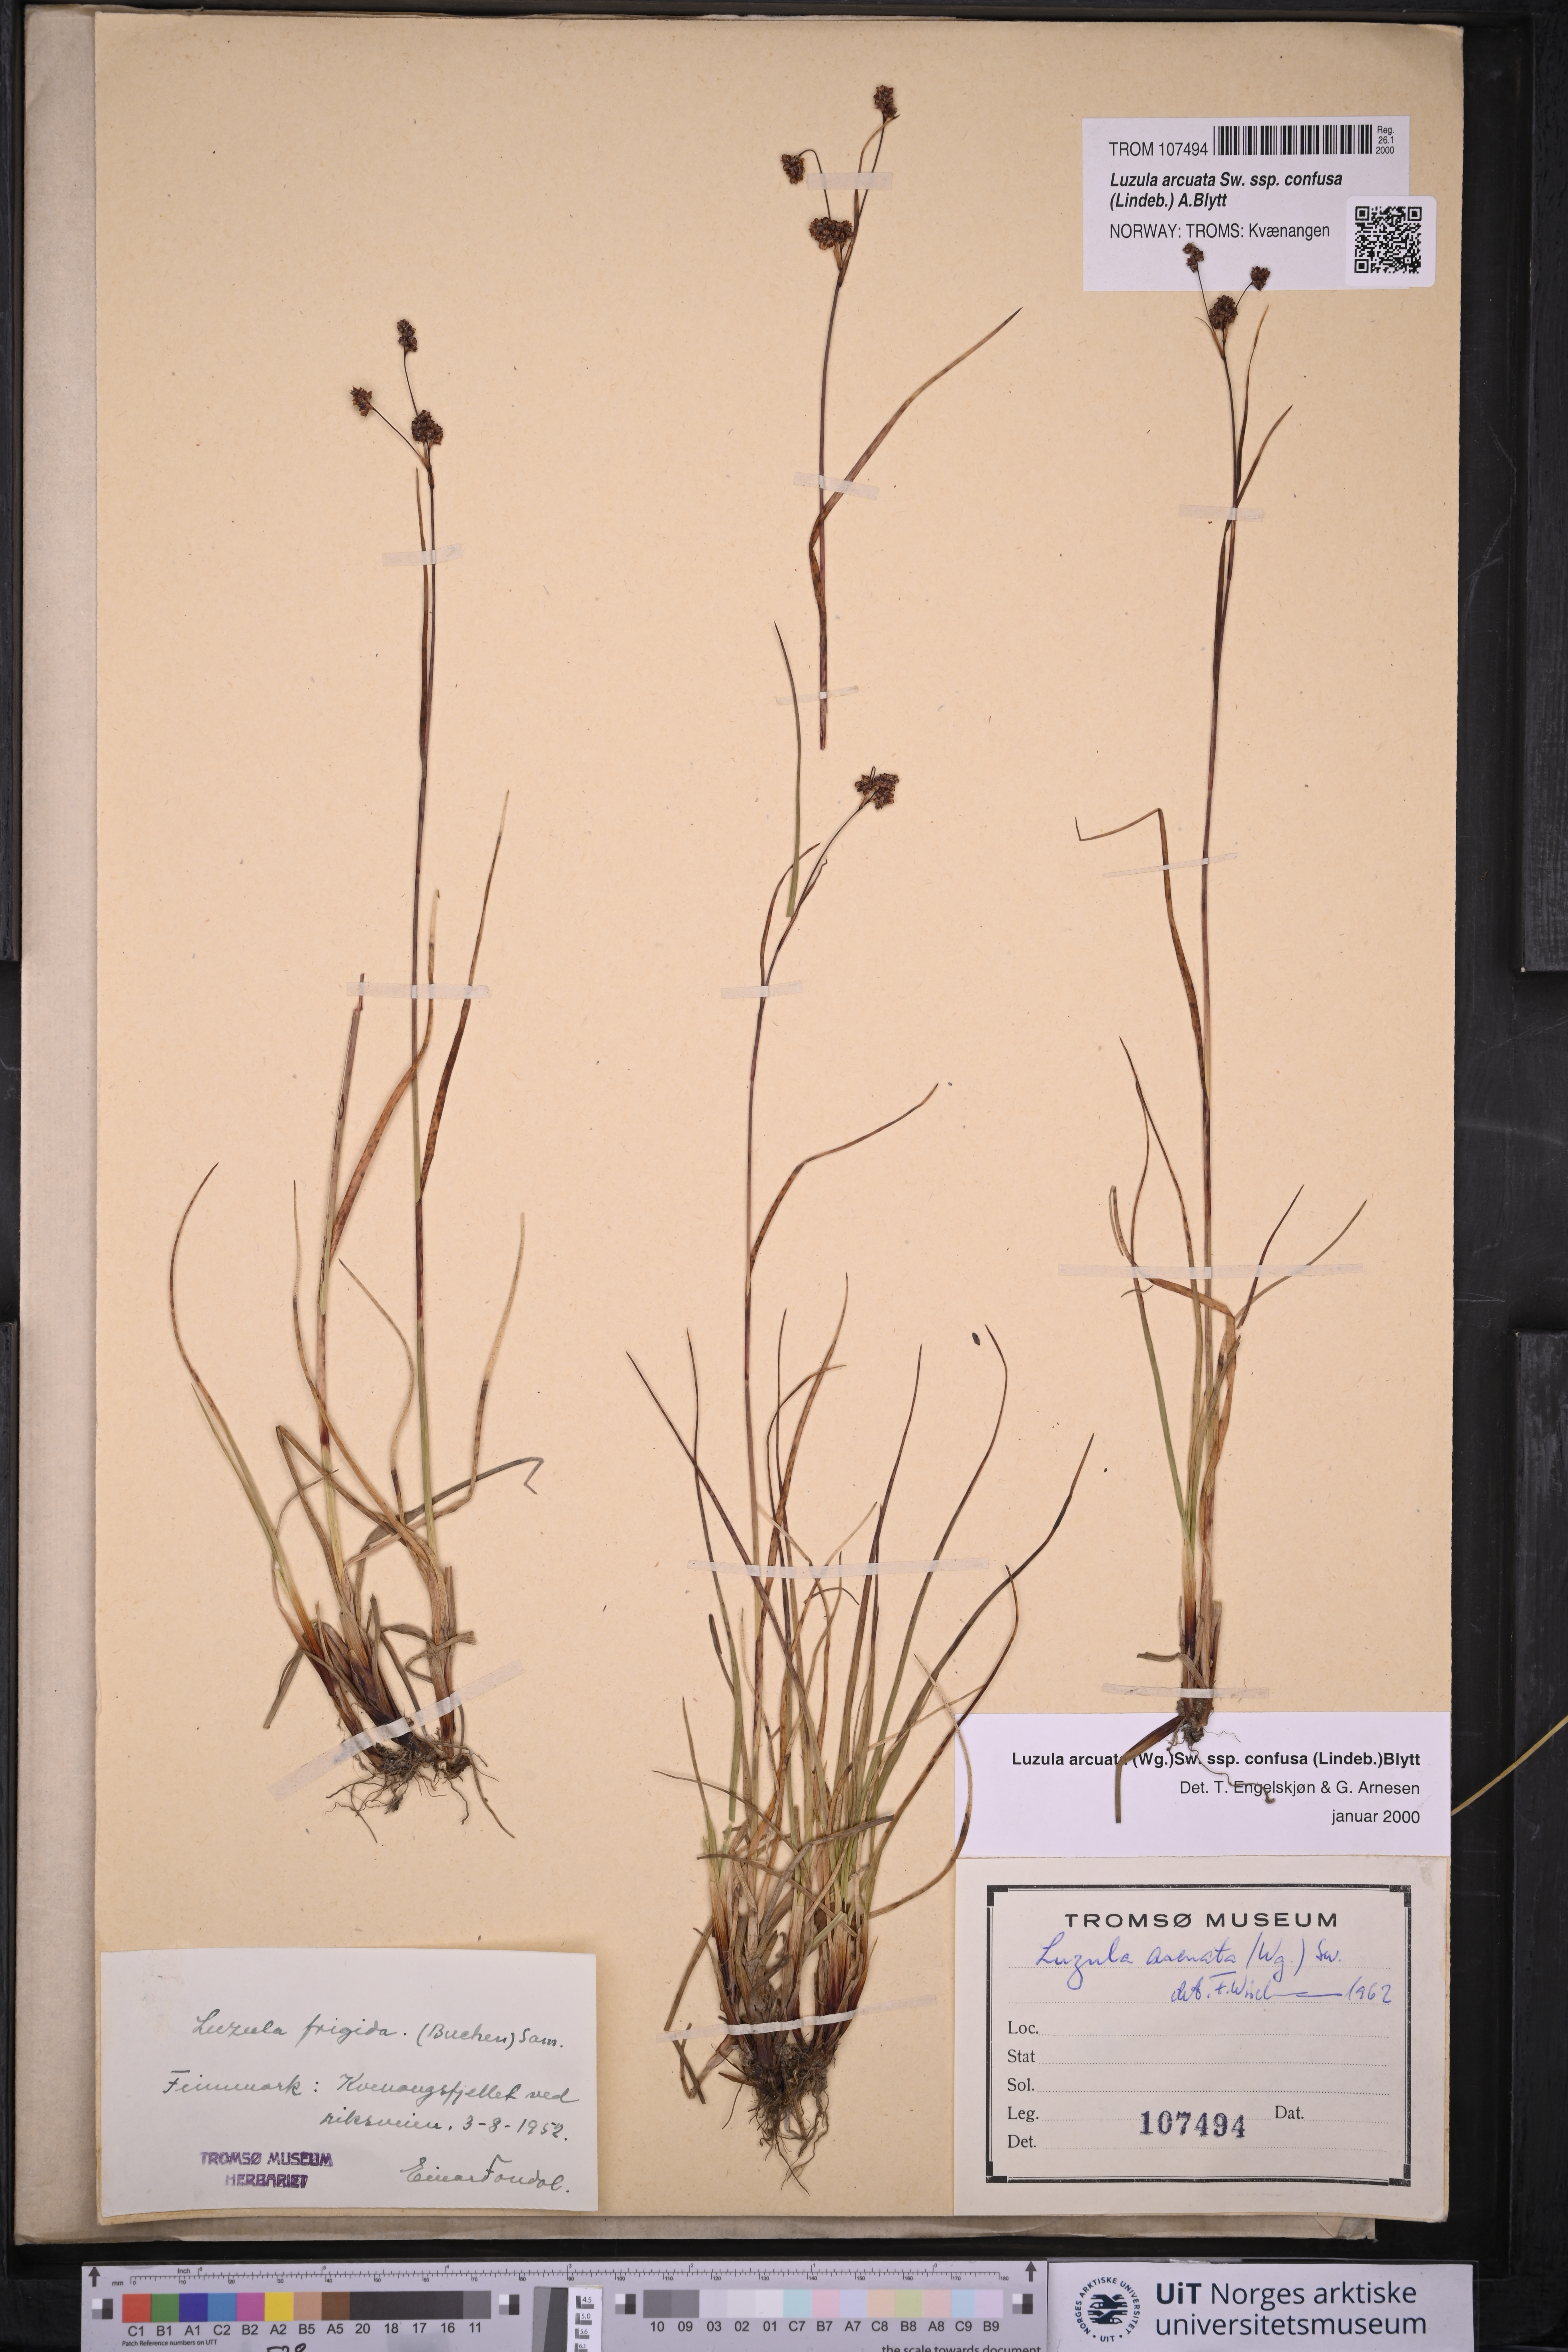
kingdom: Plantae
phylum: Tracheophyta
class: Liliopsida
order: Poales
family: Juncaceae
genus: Luzula
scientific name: Luzula confusa
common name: Northern wood rush
